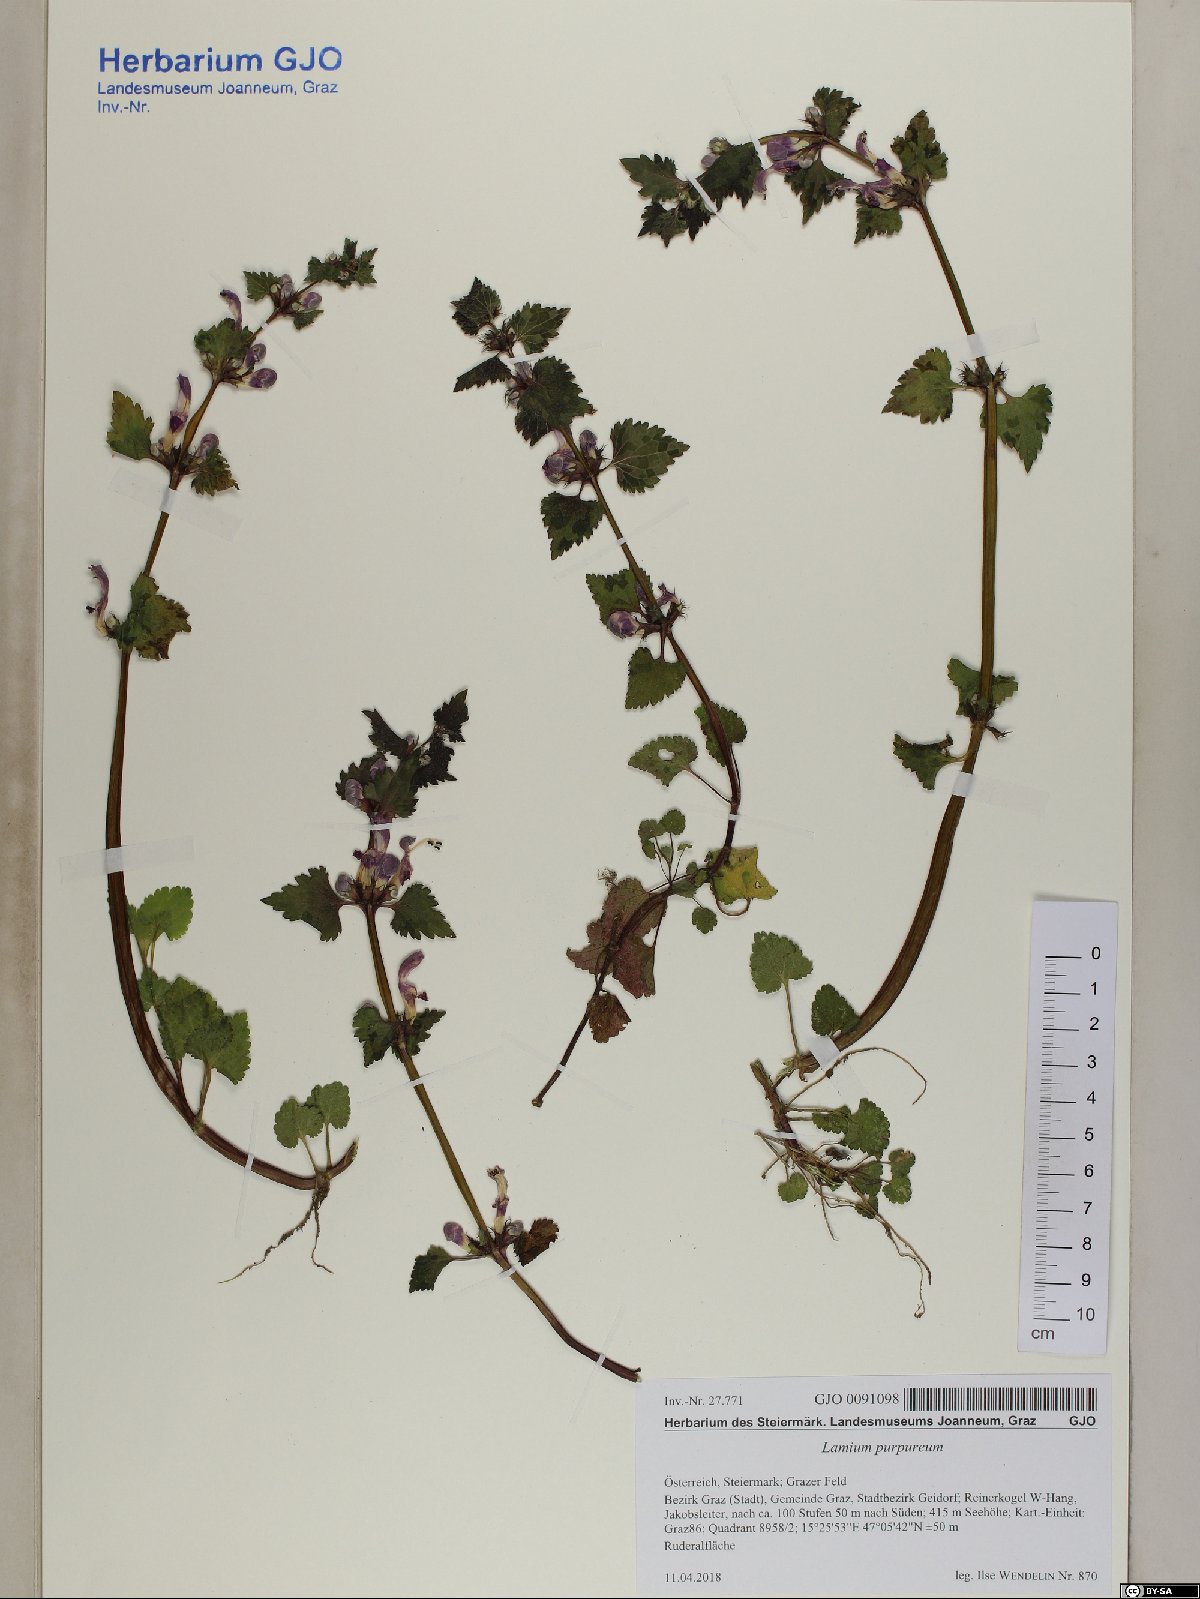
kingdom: Plantae
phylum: Tracheophyta
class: Magnoliopsida
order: Lamiales
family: Lamiaceae
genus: Lamium
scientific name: Lamium maculatum
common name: Spotted dead-nettle
